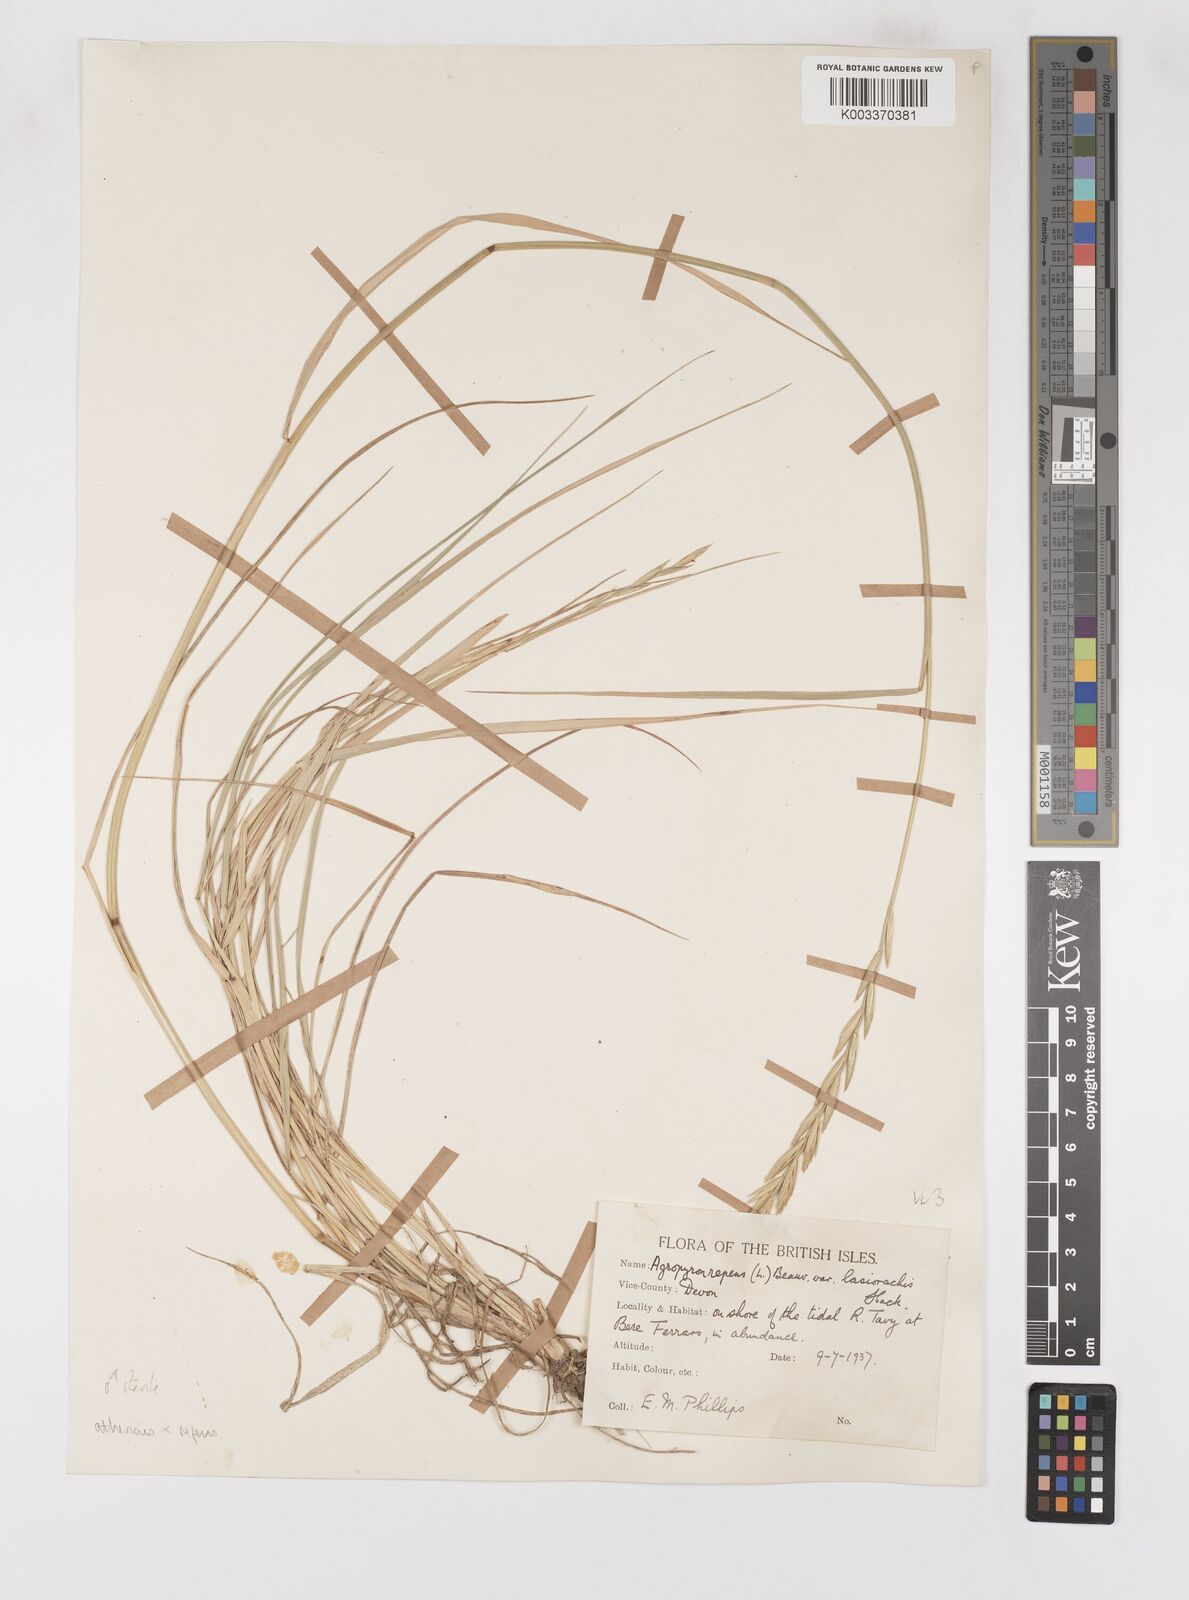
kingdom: Plantae
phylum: Tracheophyta
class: Liliopsida
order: Poales
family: Poaceae
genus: Elymus
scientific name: Elymus oliveri
